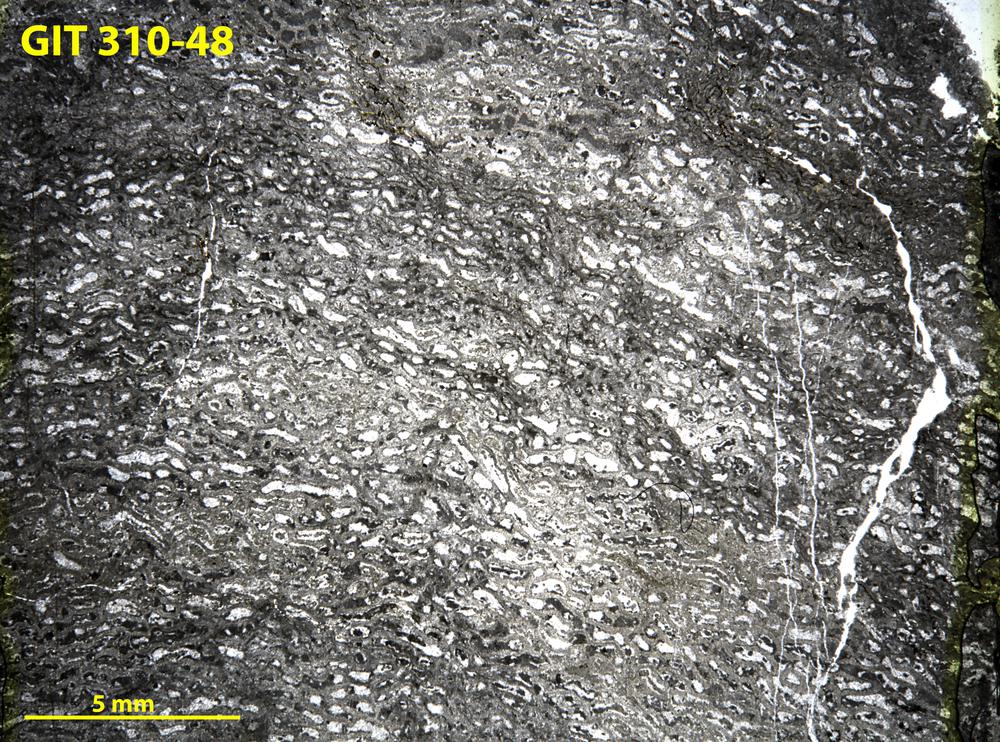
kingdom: Animalia
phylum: Porifera
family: Actinodictyidae
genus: Camptodictyon
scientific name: Camptodictyon
